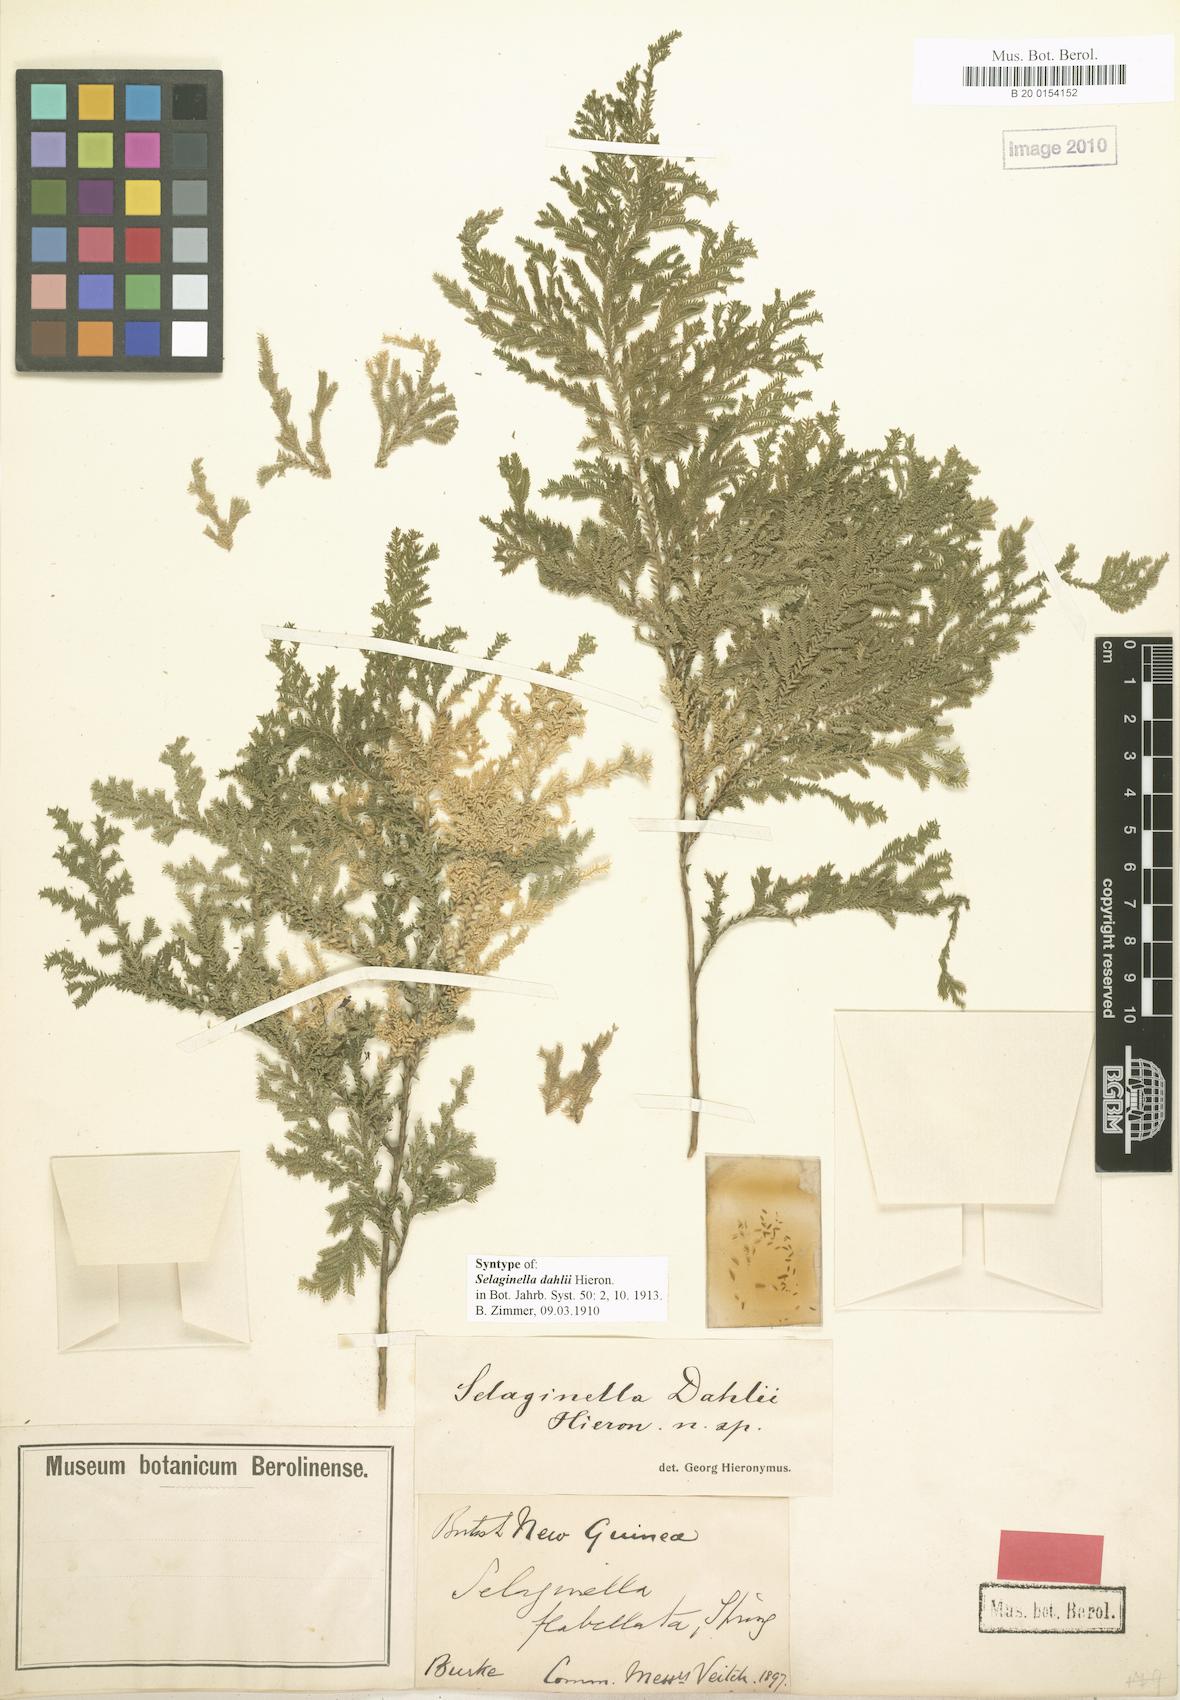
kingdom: Plantae
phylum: Tracheophyta
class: Lycopodiopsida
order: Selaginellales
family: Selaginellaceae
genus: Selaginella
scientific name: Selaginella dahlii
